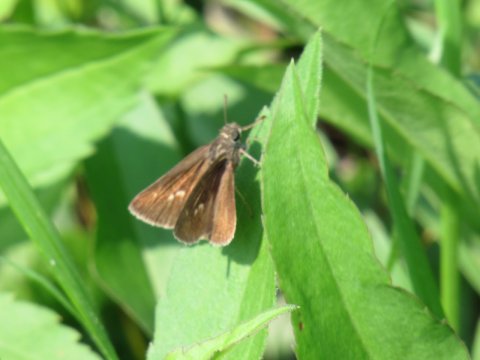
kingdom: Animalia
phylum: Arthropoda
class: Insecta
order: Lepidoptera
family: Hesperiidae
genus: Euphyes
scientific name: Euphyes vestris
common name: Dun Skipper
